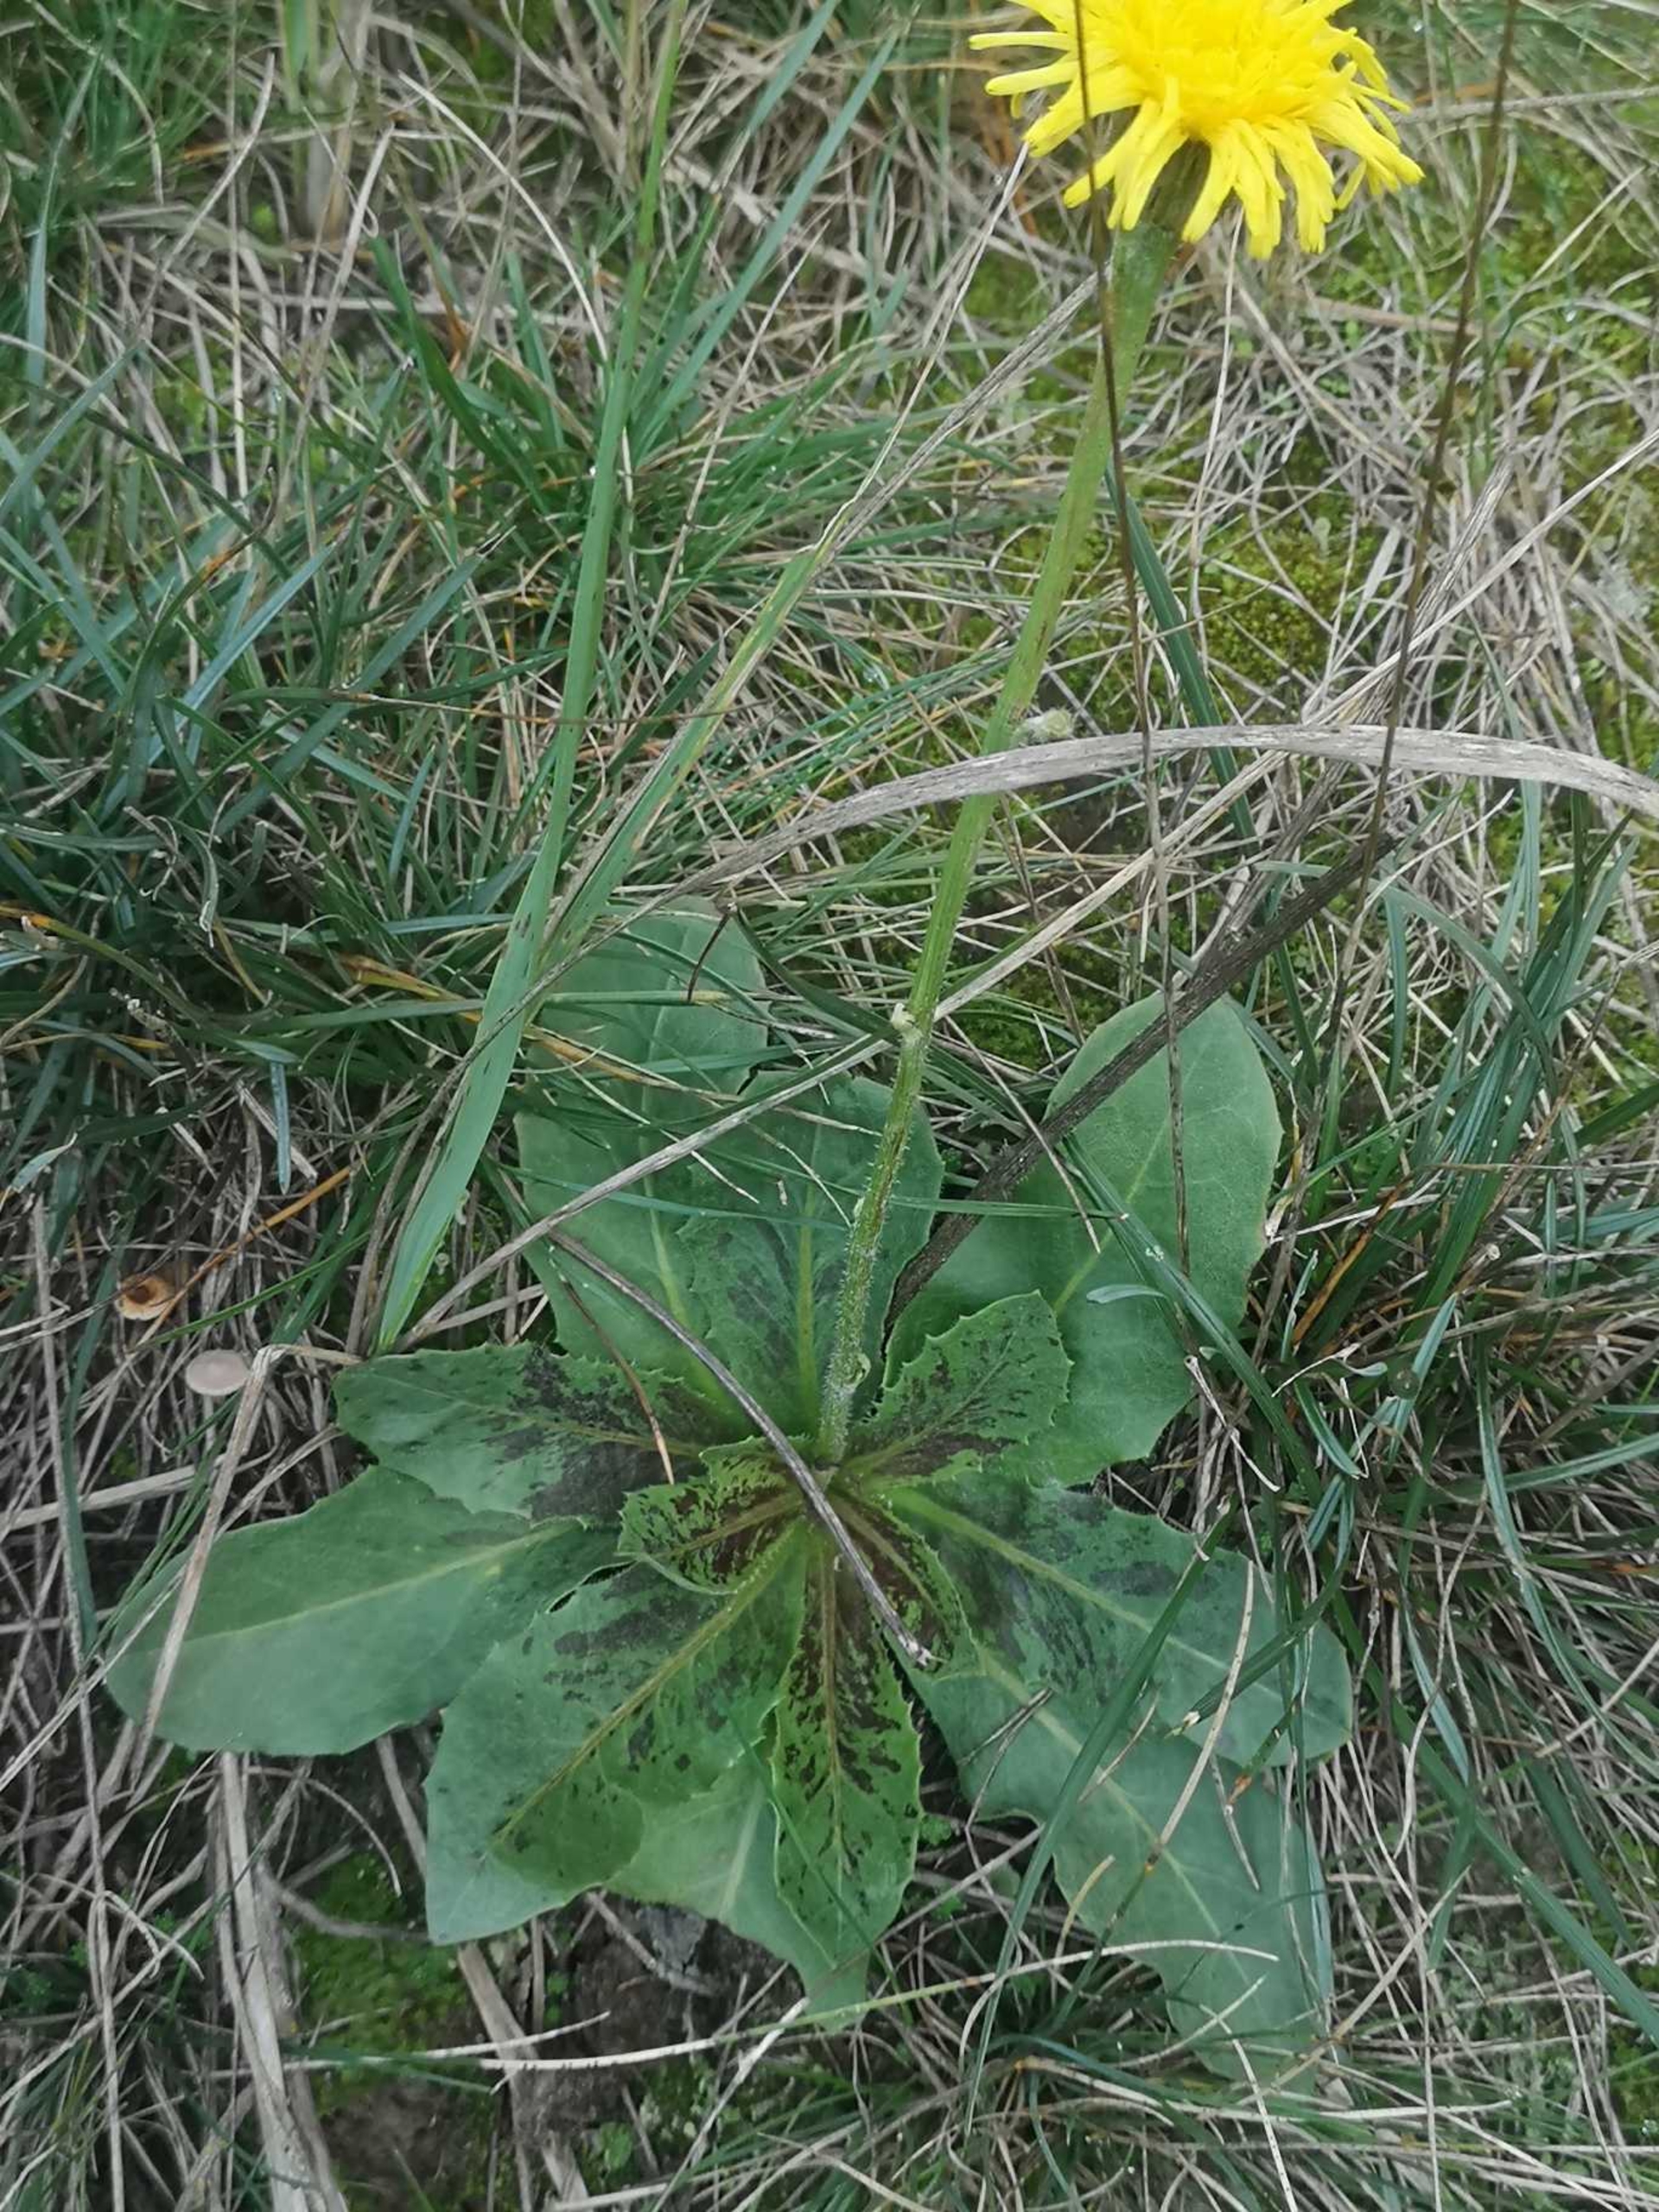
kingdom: Plantae
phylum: Tracheophyta
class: Magnoliopsida
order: Asterales
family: Asteraceae
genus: Trommsdorffia
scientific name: Trommsdorffia maculata
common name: Plettet kongepen
